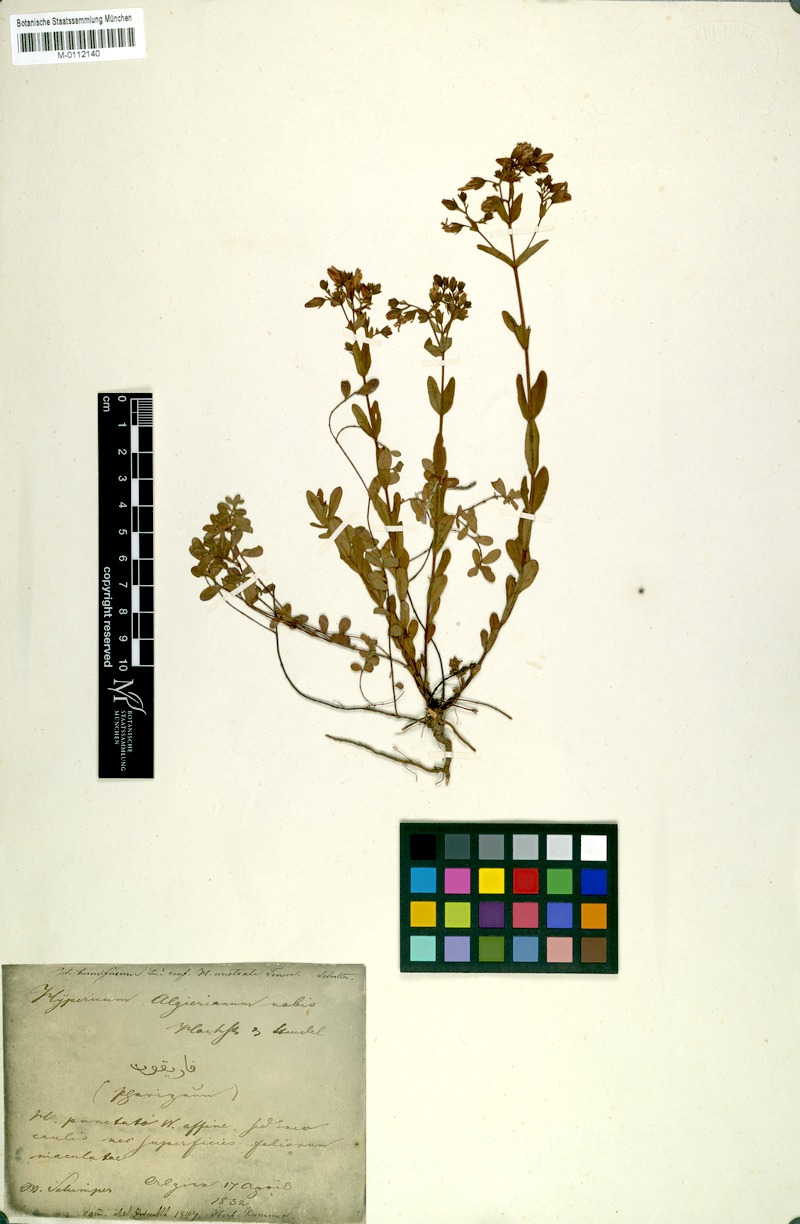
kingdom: Plantae
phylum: Tracheophyta
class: Magnoliopsida
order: Malpighiales
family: Hypericaceae
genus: Hypericum
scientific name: Hypericum
